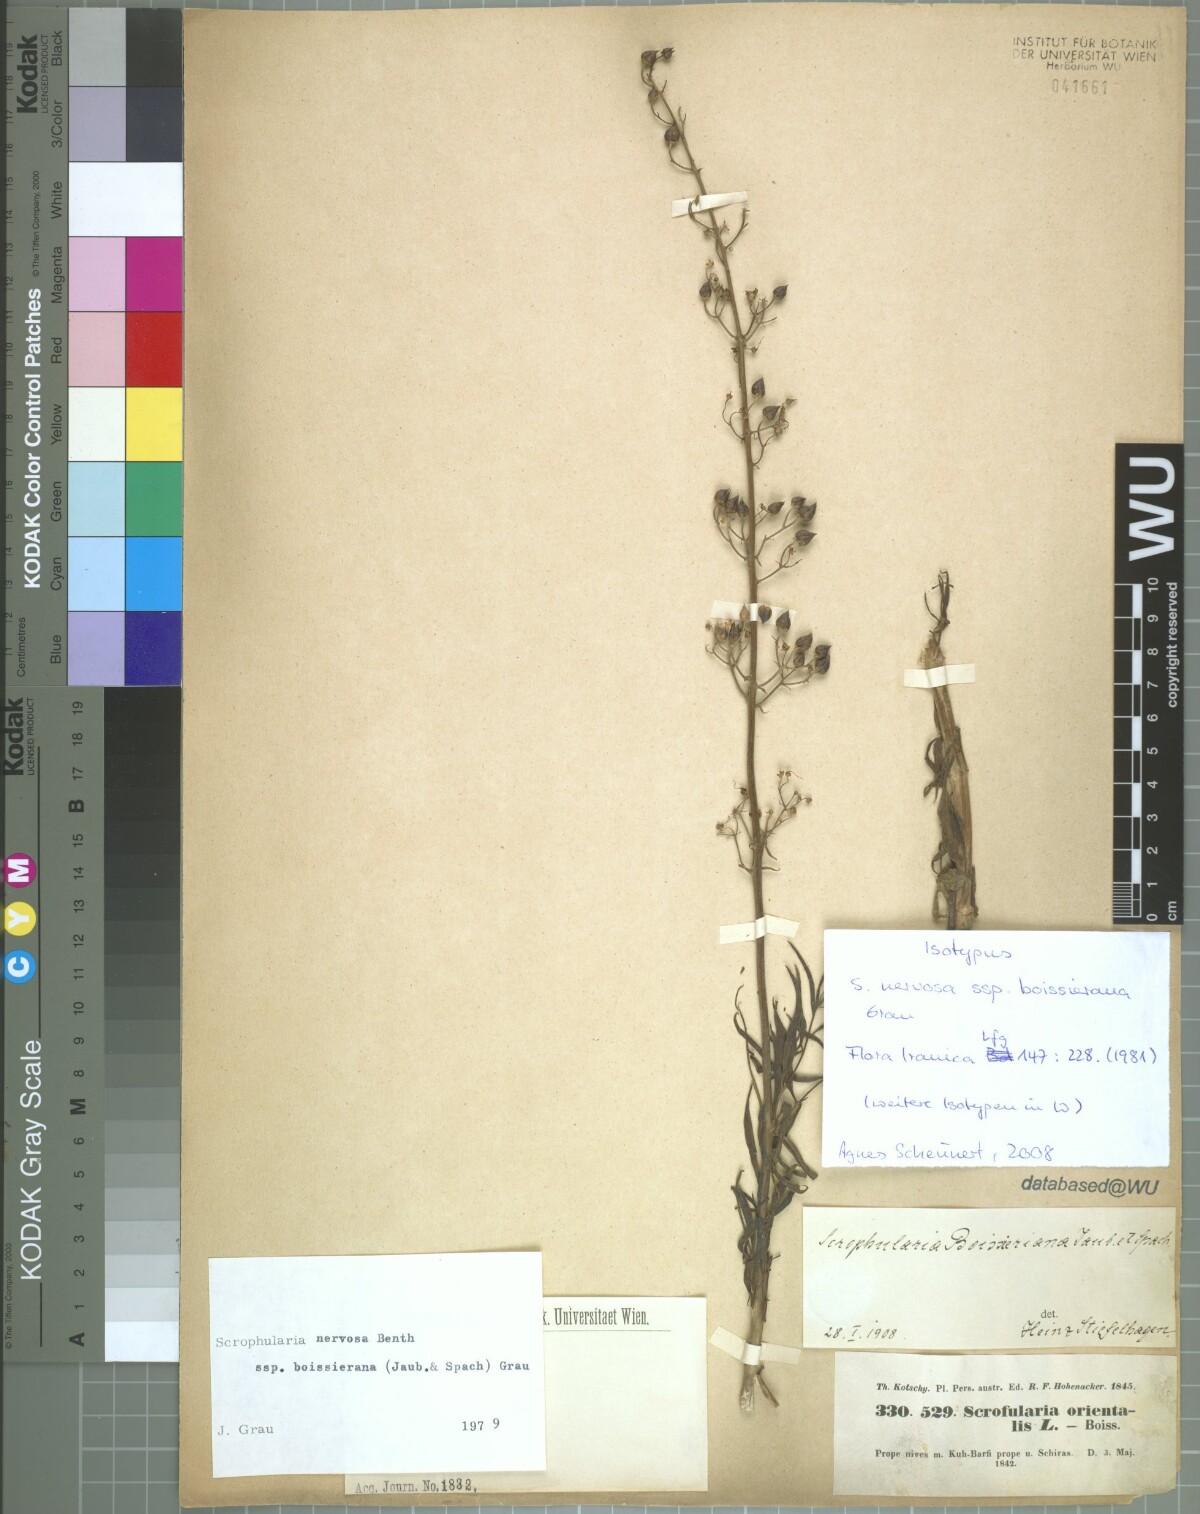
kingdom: Plantae
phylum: Tracheophyta
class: Magnoliopsida
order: Lamiales
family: Scrophulariaceae
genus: Scrophularia
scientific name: Scrophularia nervosa
